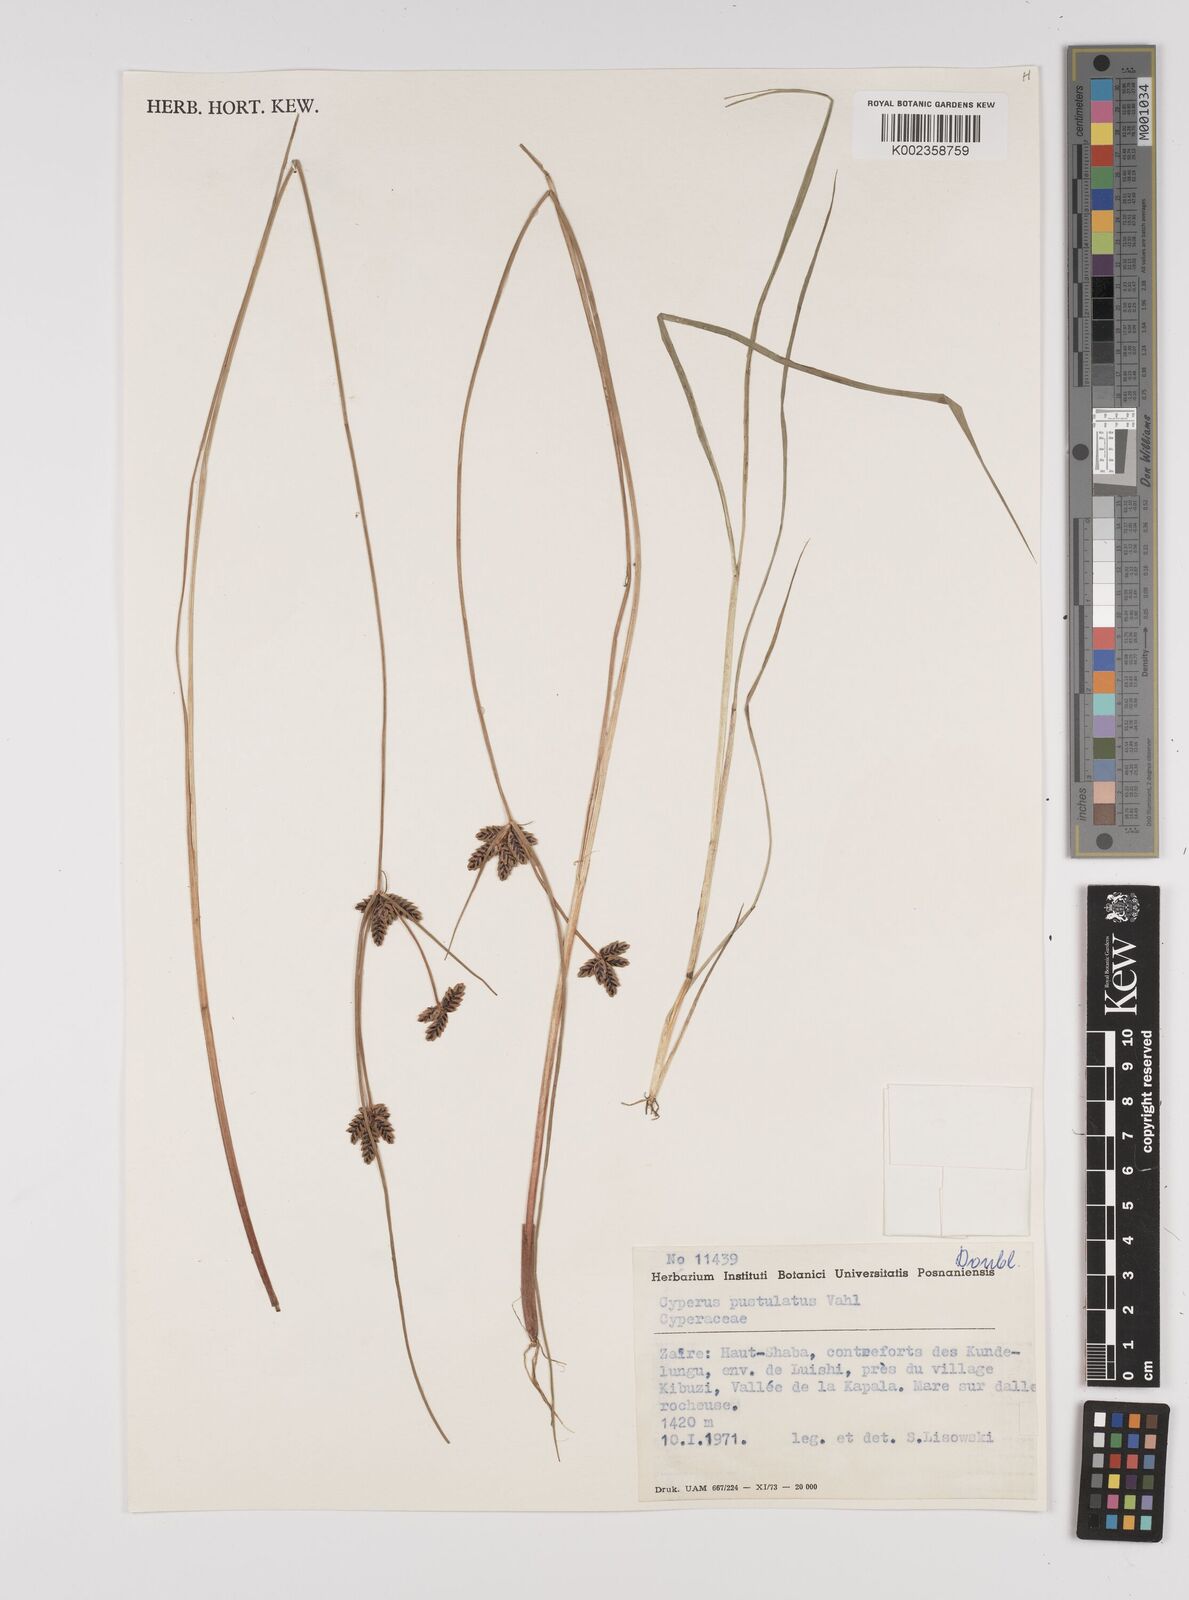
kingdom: Plantae
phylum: Tracheophyta
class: Liliopsida
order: Poales
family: Cyperaceae
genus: Cyperus
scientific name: Cyperus pustulatus
